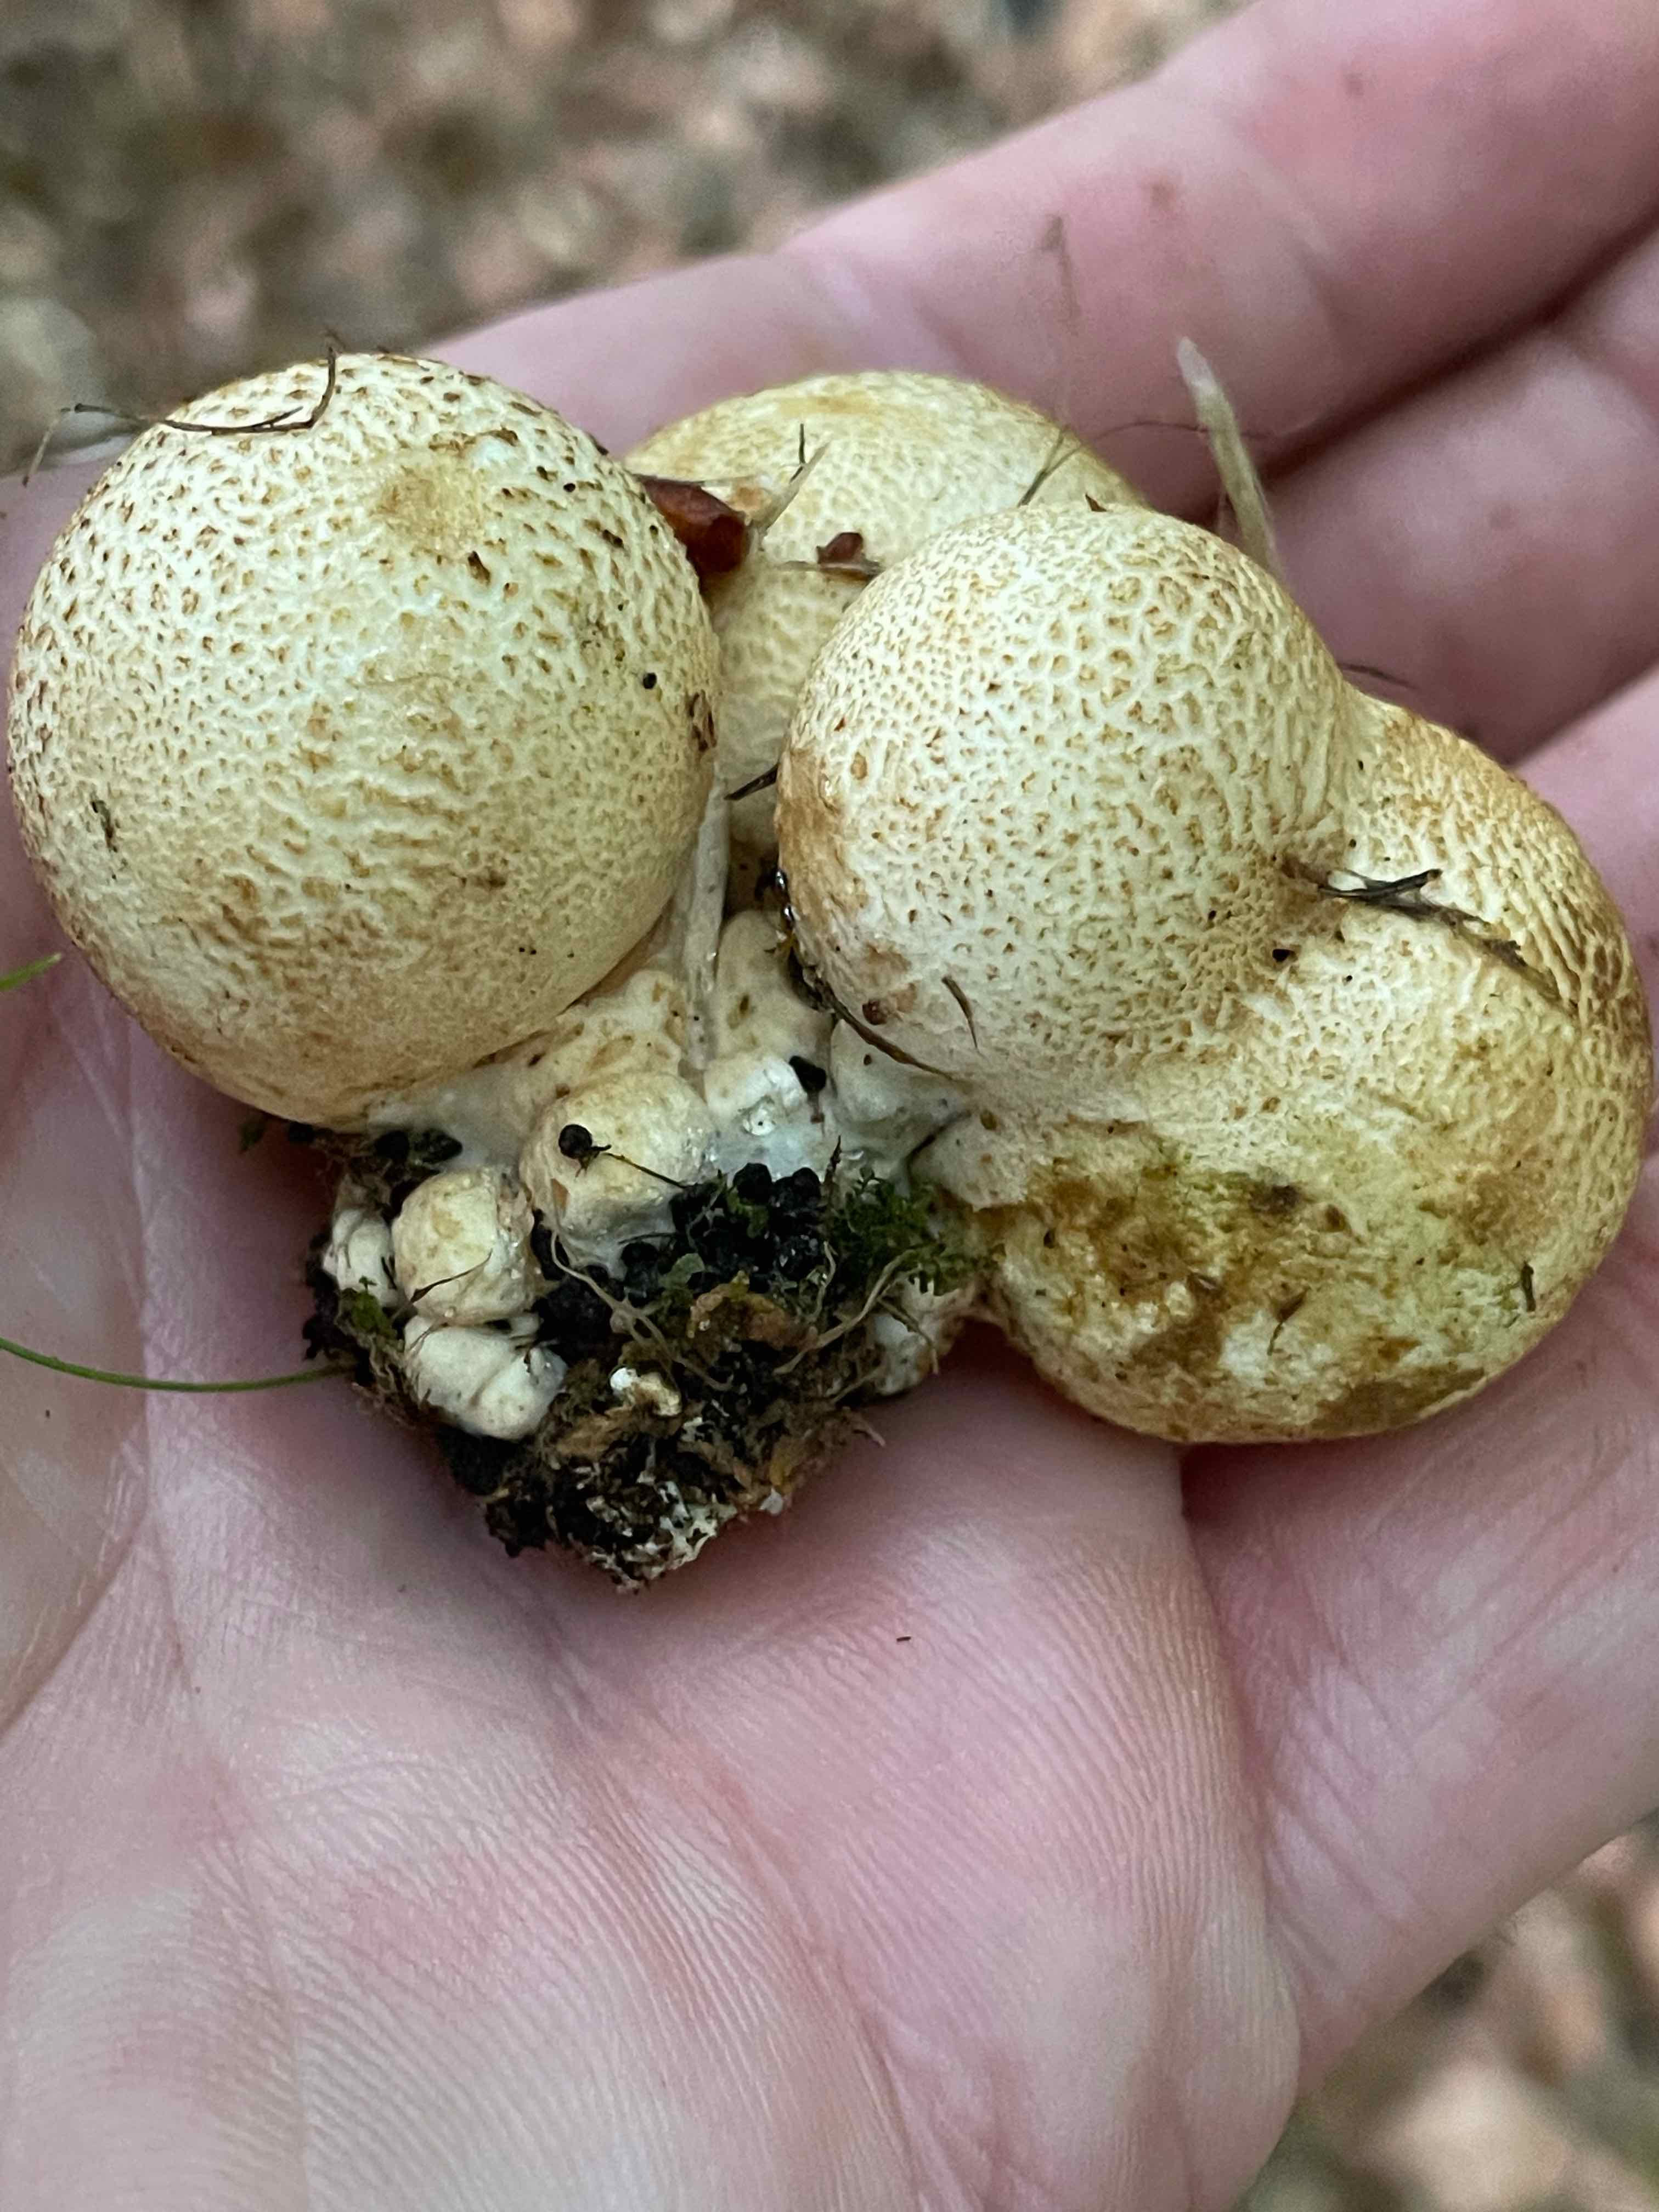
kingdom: Fungi
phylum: Basidiomycota
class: Agaricomycetes
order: Boletales
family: Sclerodermataceae
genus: Scleroderma
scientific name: Scleroderma citrinum
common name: almindelig bruskbold
